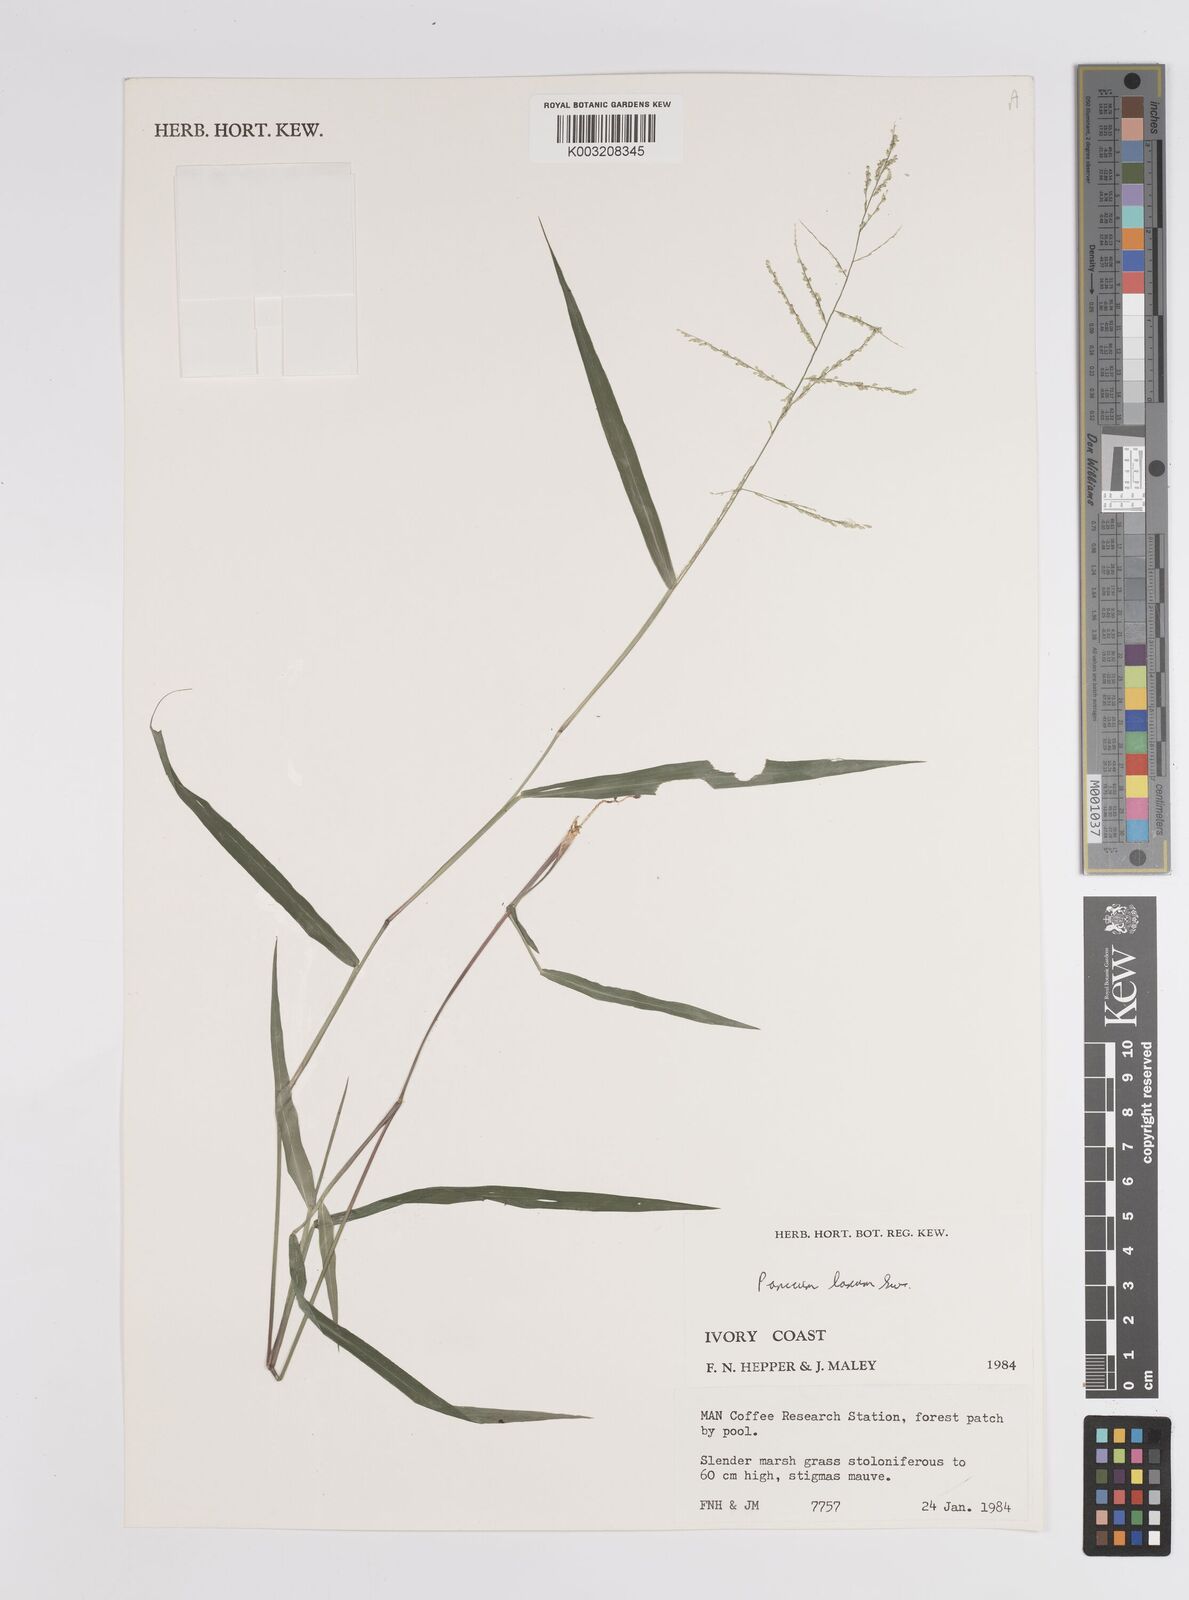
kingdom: Plantae
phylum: Tracheophyta
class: Liliopsida
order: Poales
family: Poaceae
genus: Steinchisma
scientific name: Steinchisma laxum
